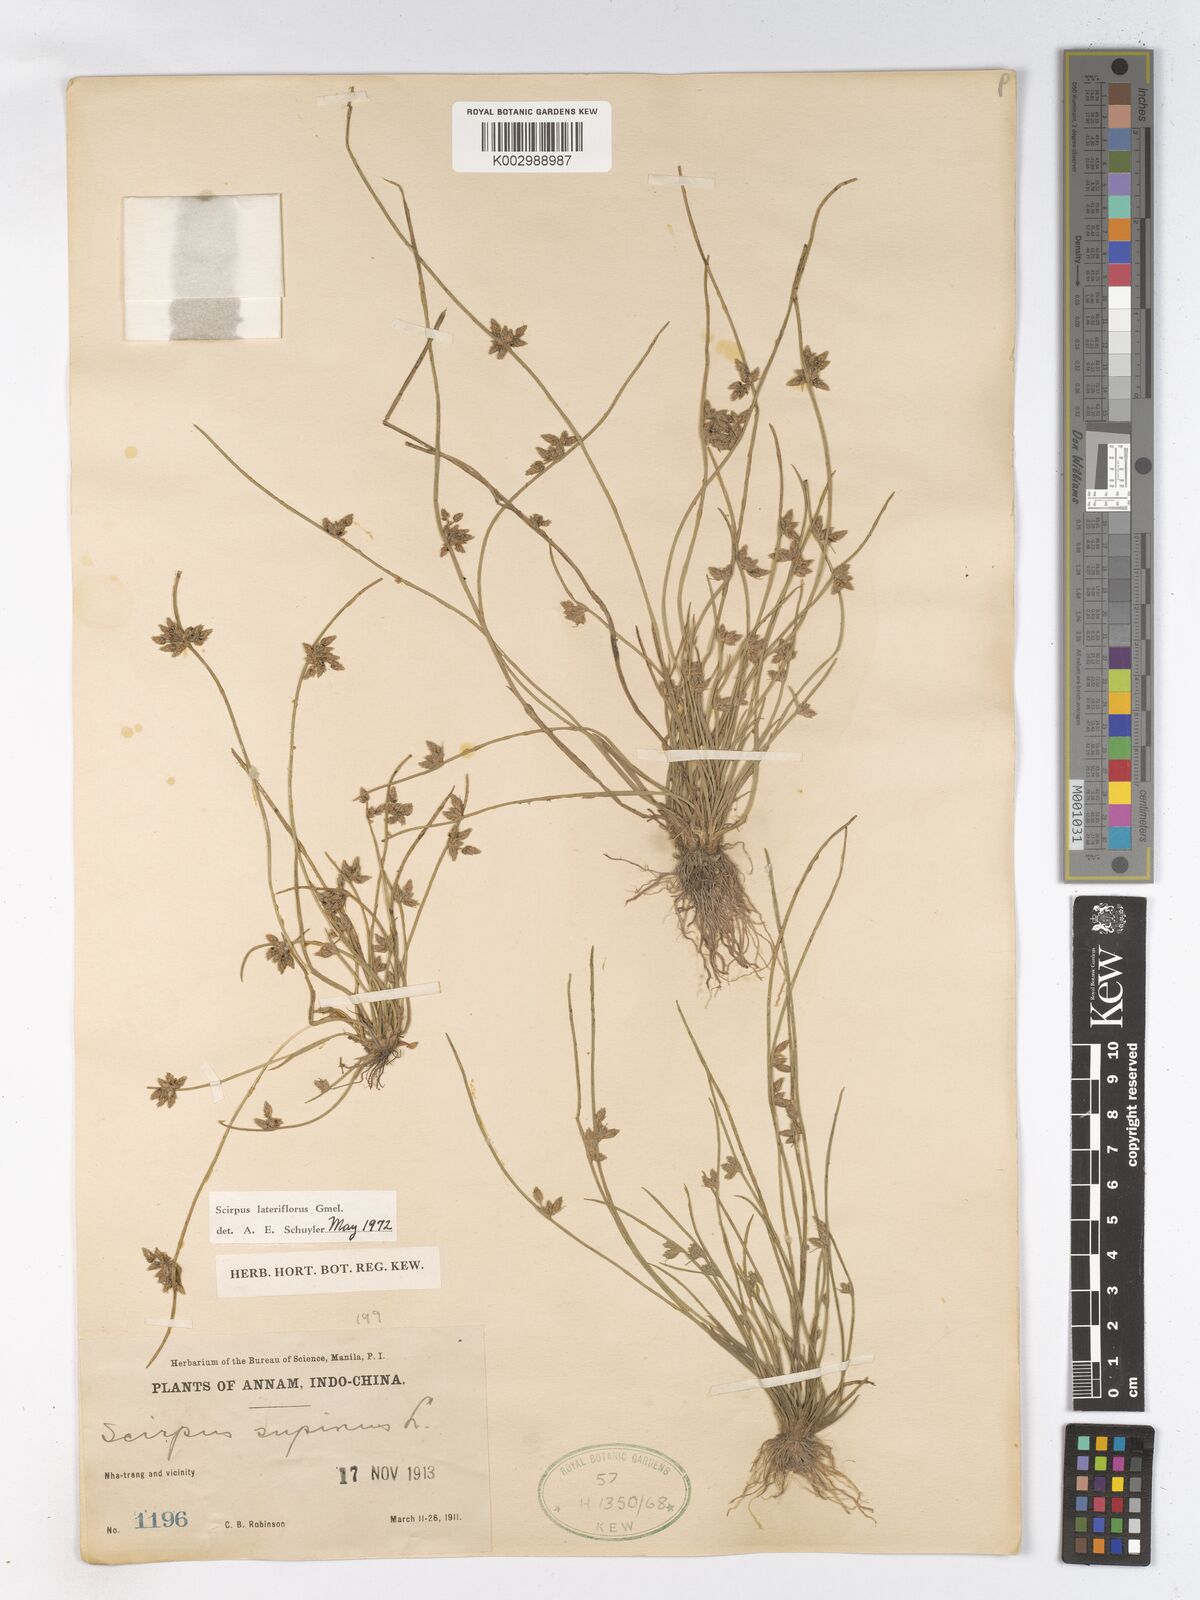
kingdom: Plantae
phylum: Tracheophyta
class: Liliopsida
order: Poales
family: Cyperaceae
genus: Schoenoplectiella
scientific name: Schoenoplectiella lateriflora
